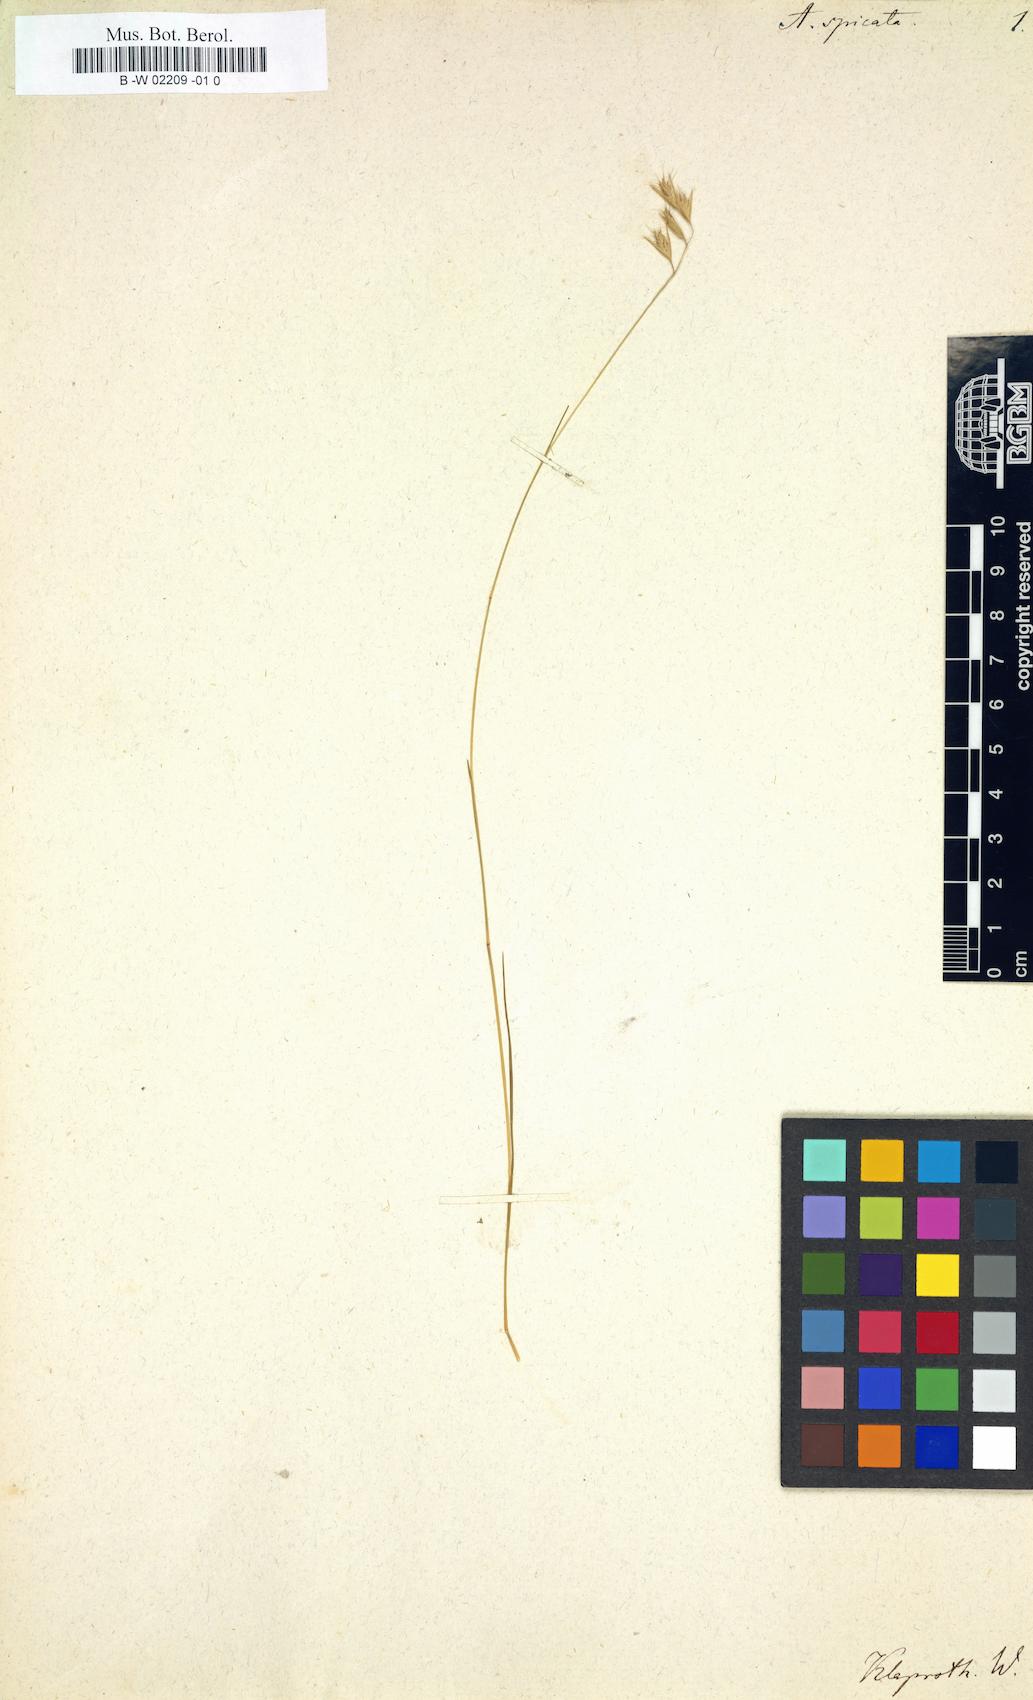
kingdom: Plantae
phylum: Tracheophyta
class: Liliopsida
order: Poales
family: Poaceae
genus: Danthonia
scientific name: Danthonia spicata
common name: Common wild oatgrass
